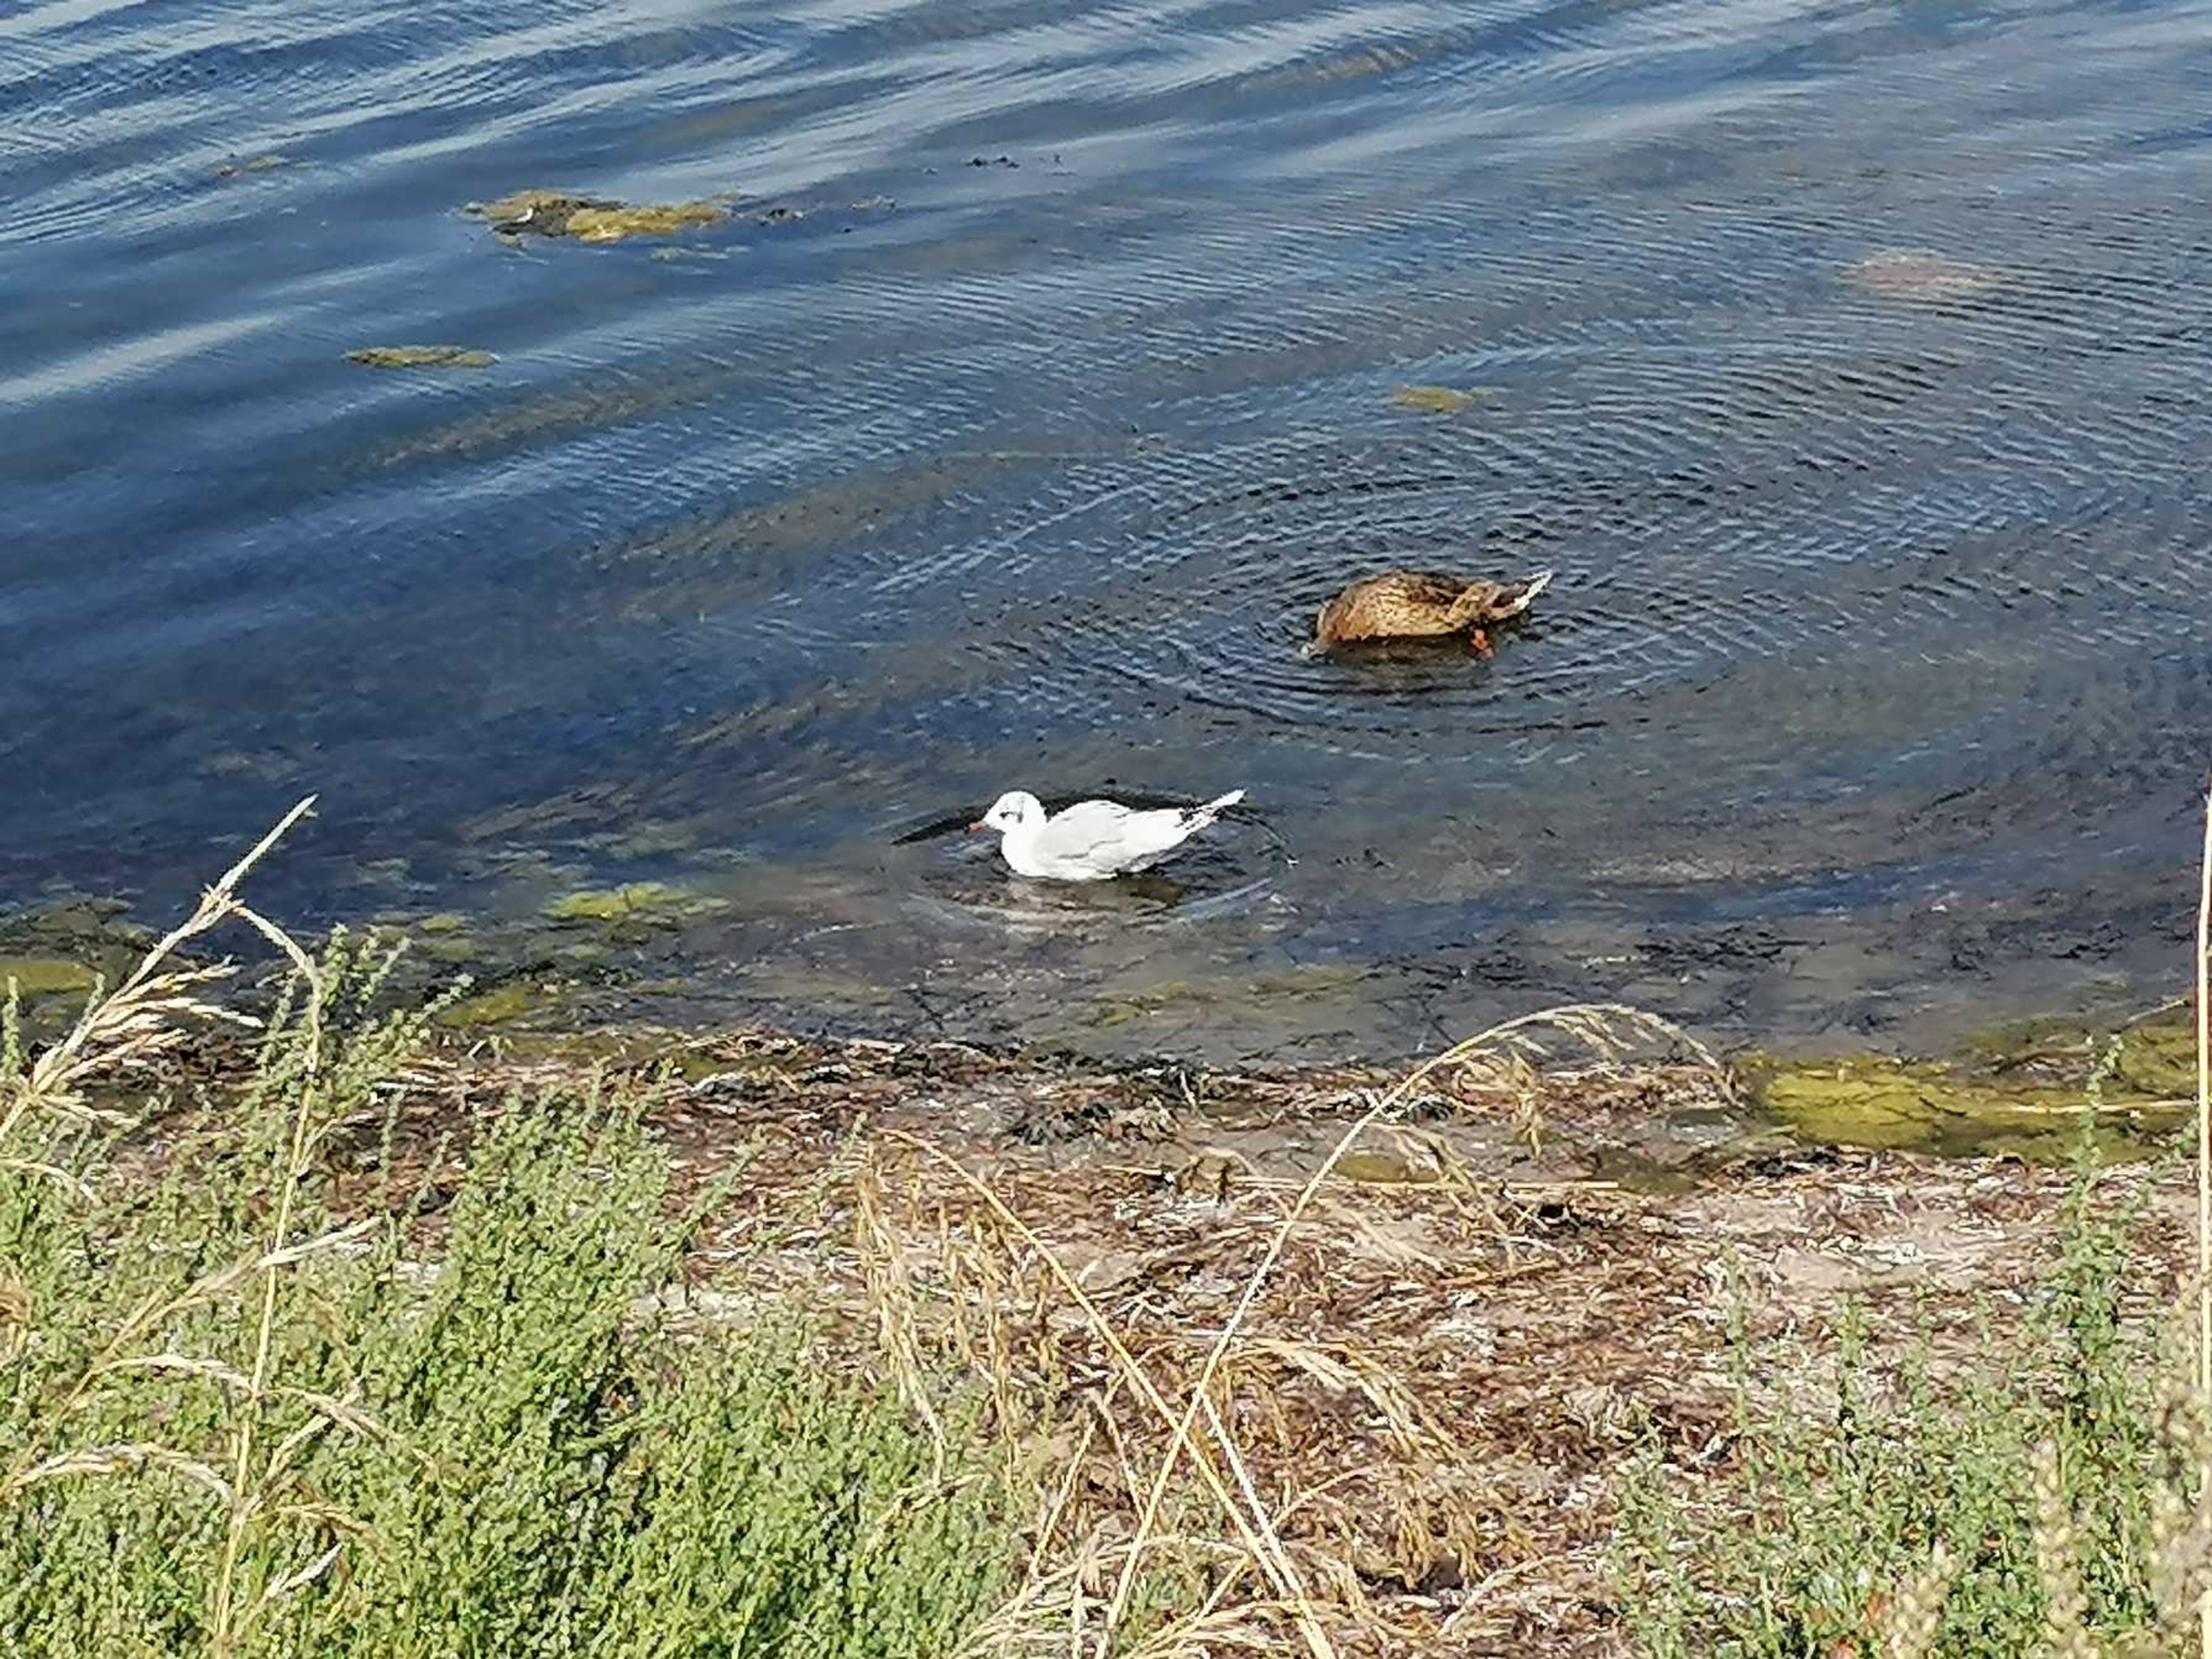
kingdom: Animalia
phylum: Chordata
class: Aves
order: Charadriiformes
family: Laridae
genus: Chroicocephalus
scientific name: Chroicocephalus ridibundus
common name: Hættemåge
